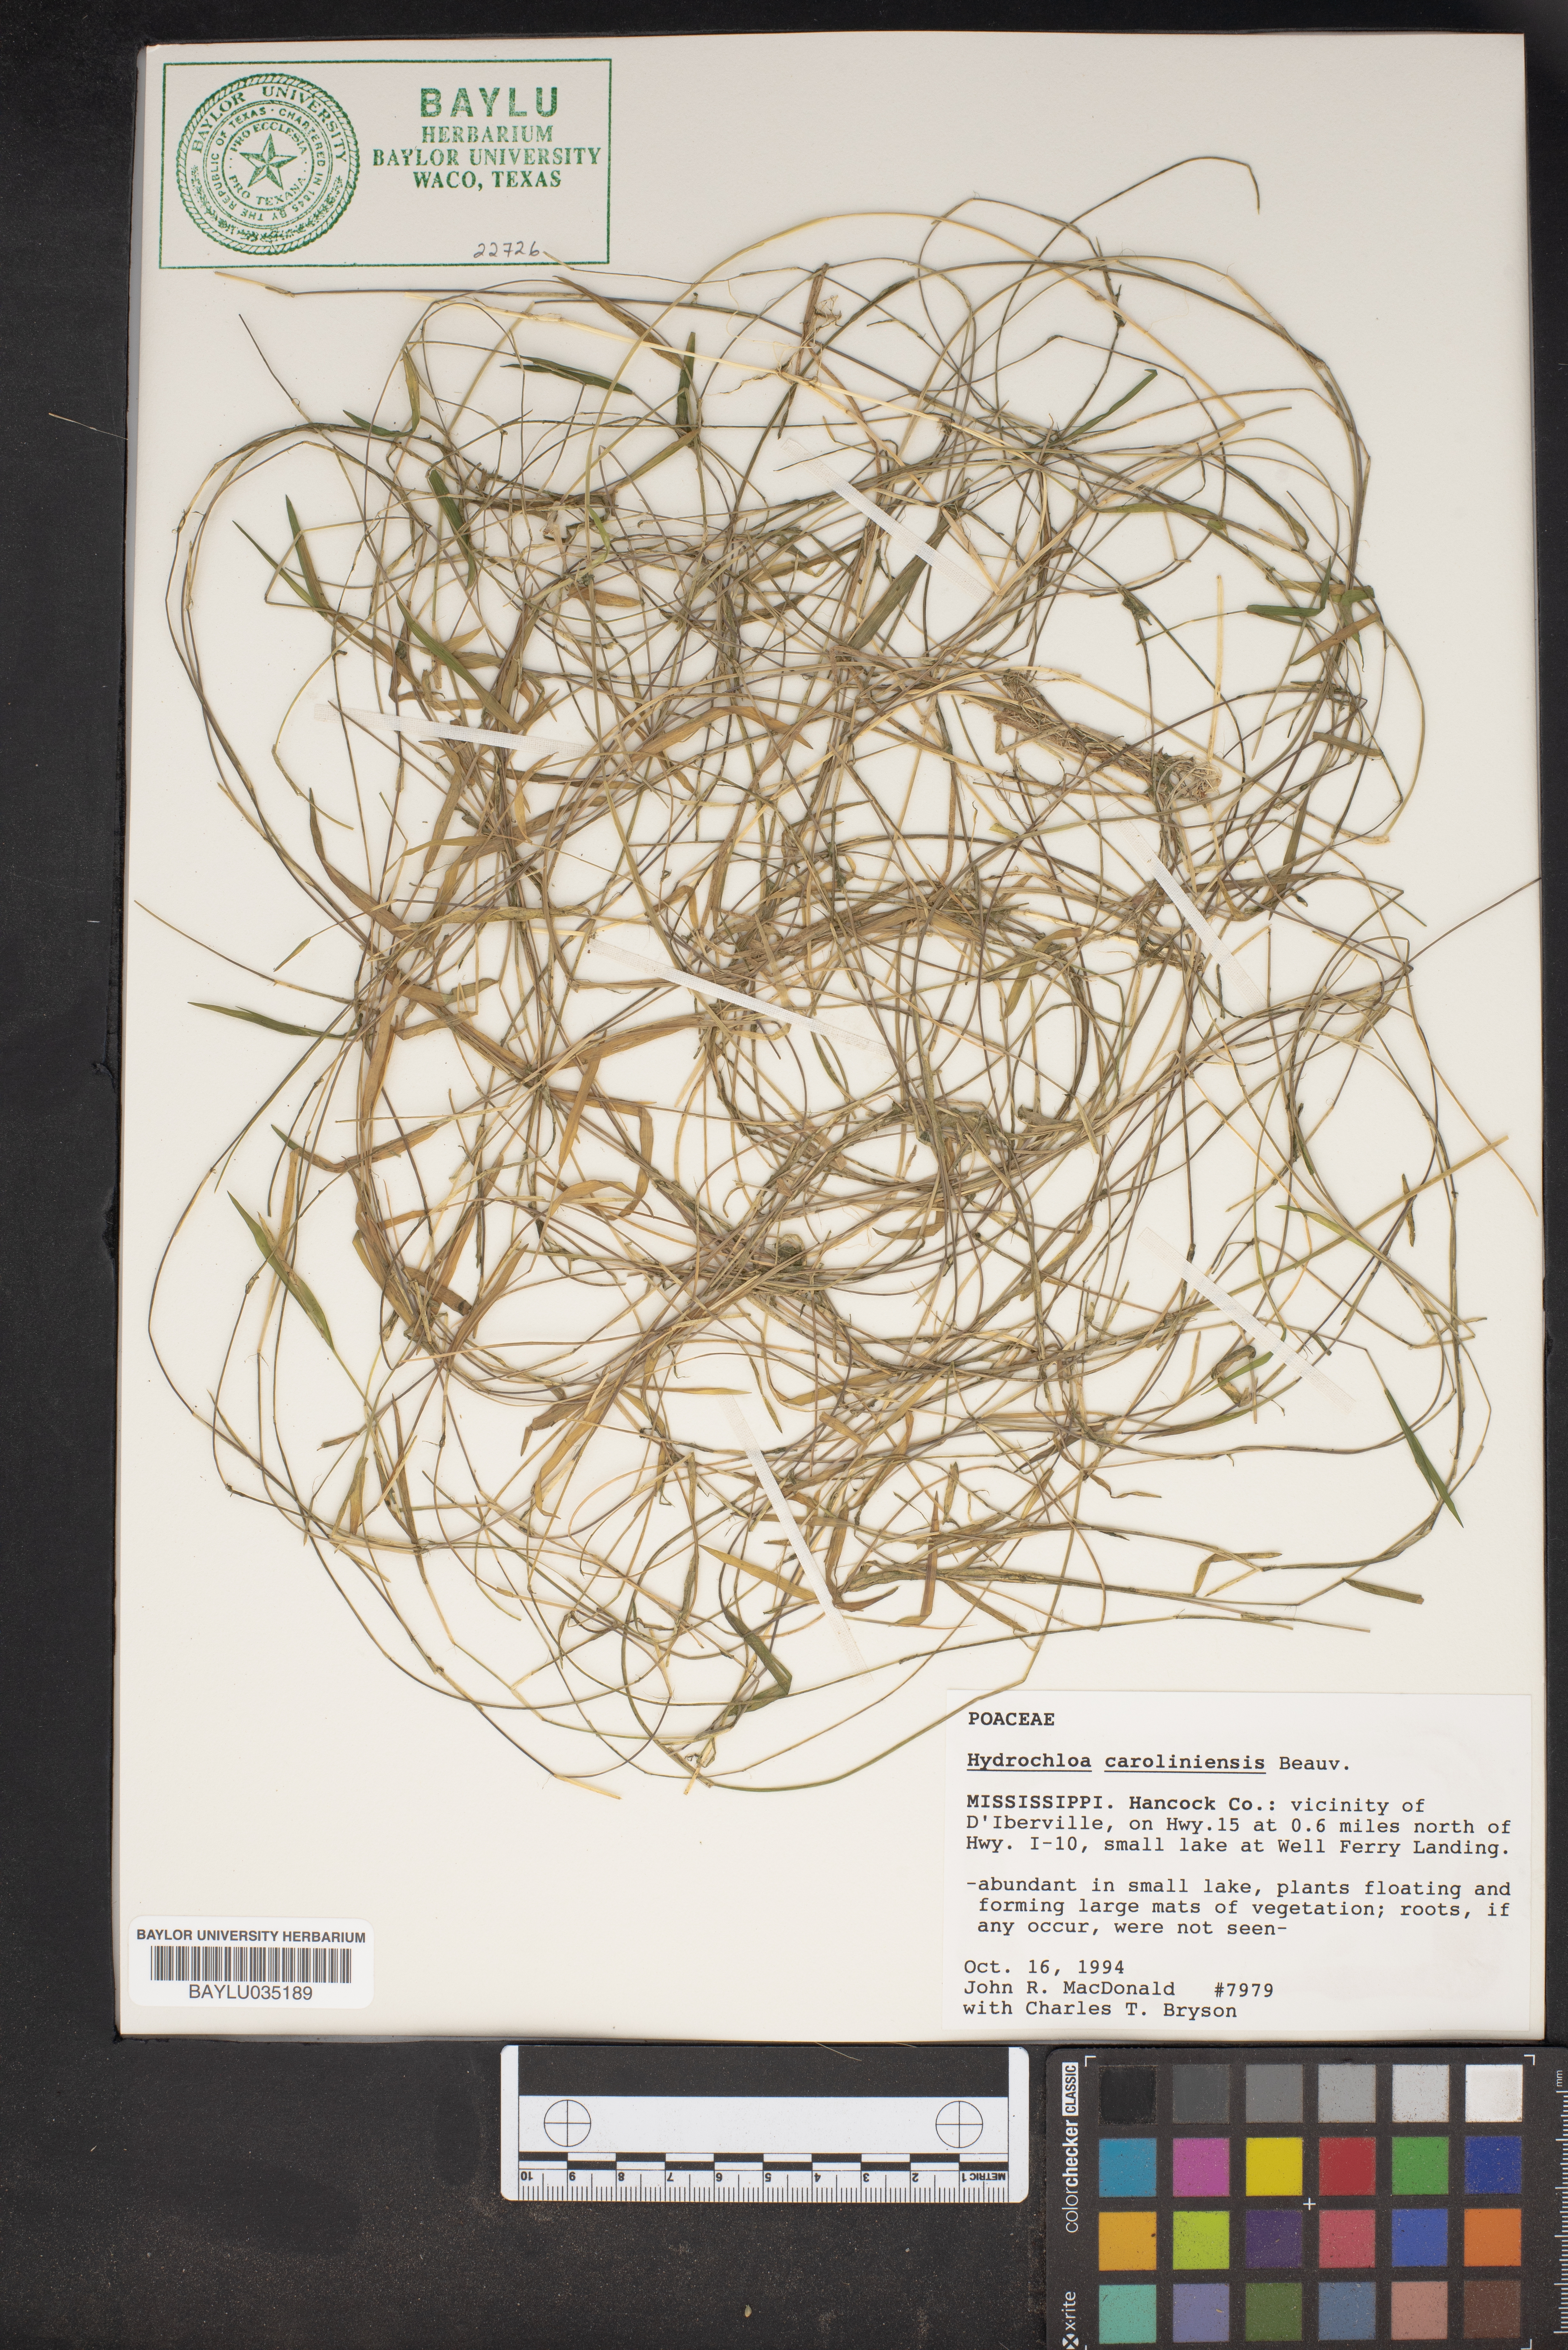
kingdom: Plantae
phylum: Tracheophyta
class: Liliopsida
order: Poales
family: Poaceae
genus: Luziola
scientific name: Luziola fluitans
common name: Silverleaf grass
